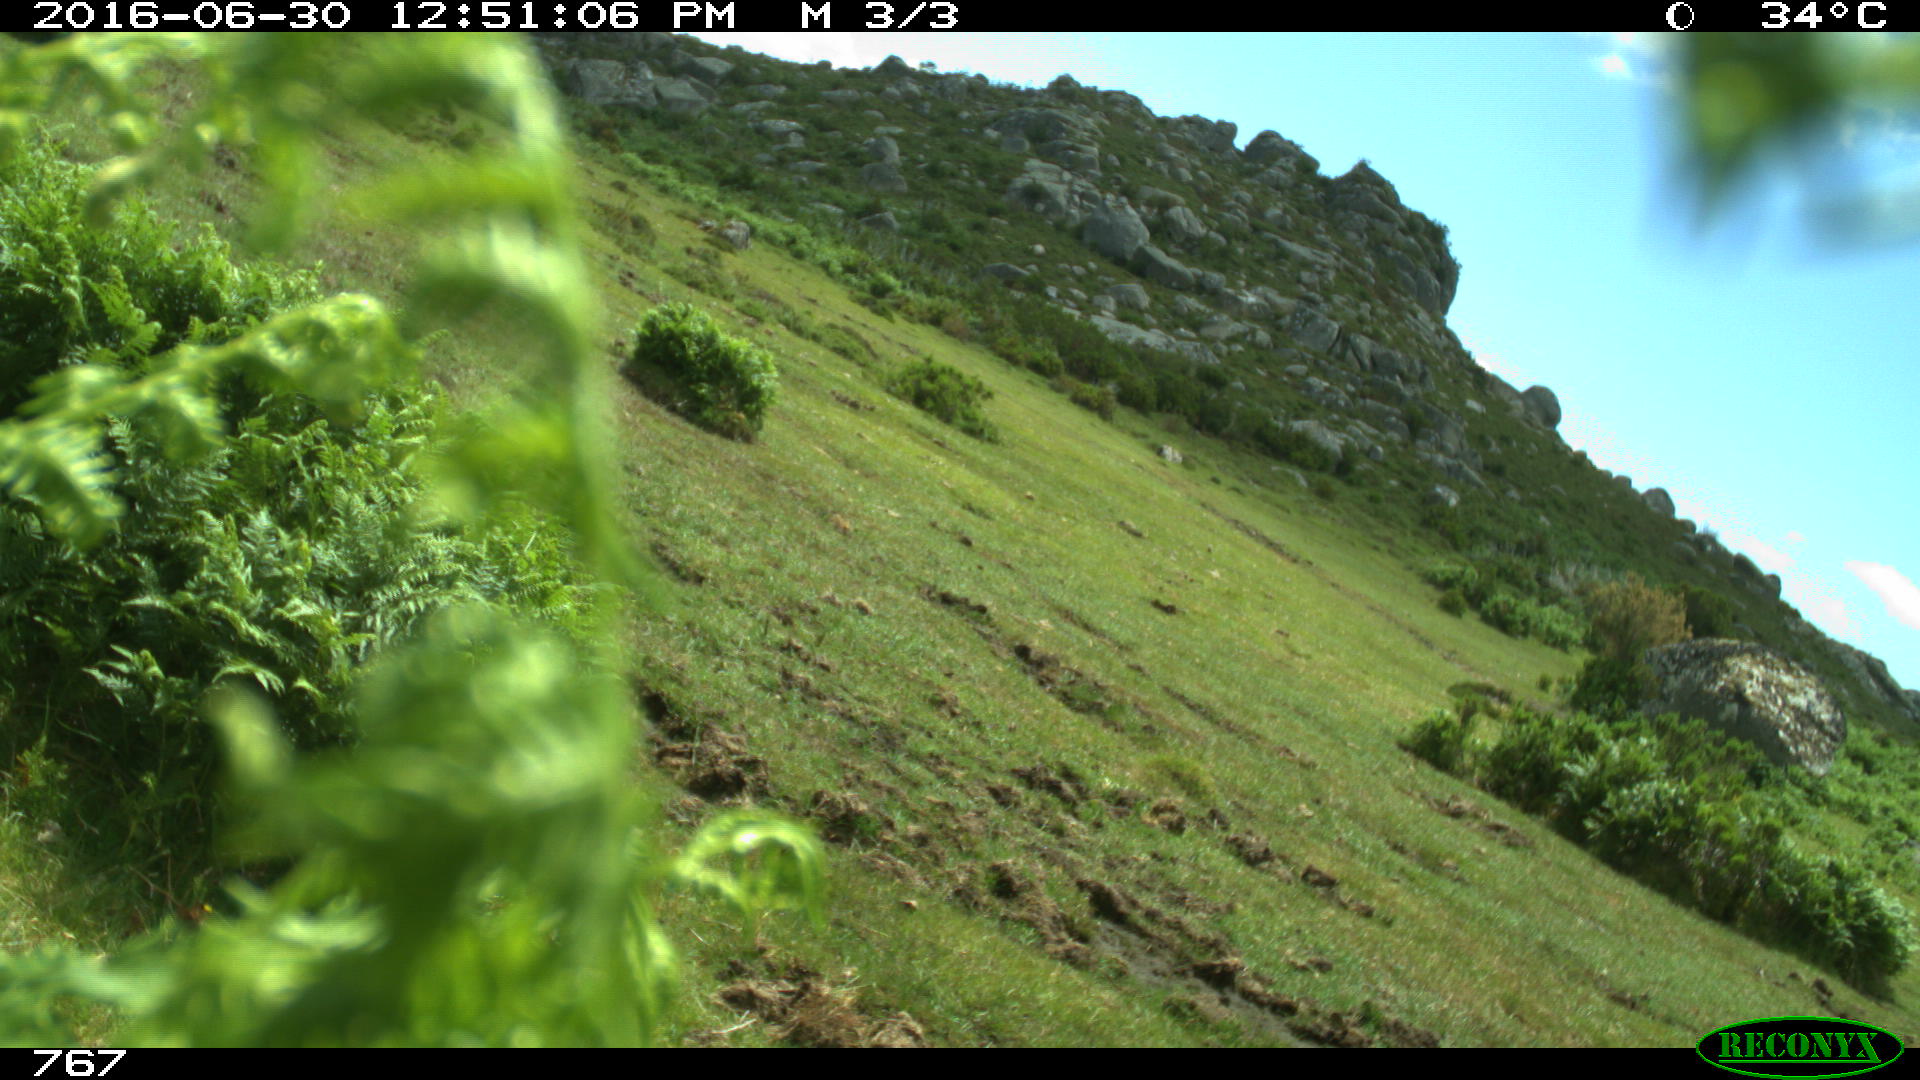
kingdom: Animalia
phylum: Chordata
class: Mammalia
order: Perissodactyla
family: Equidae
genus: Equus
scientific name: Equus caballus
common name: Horse
